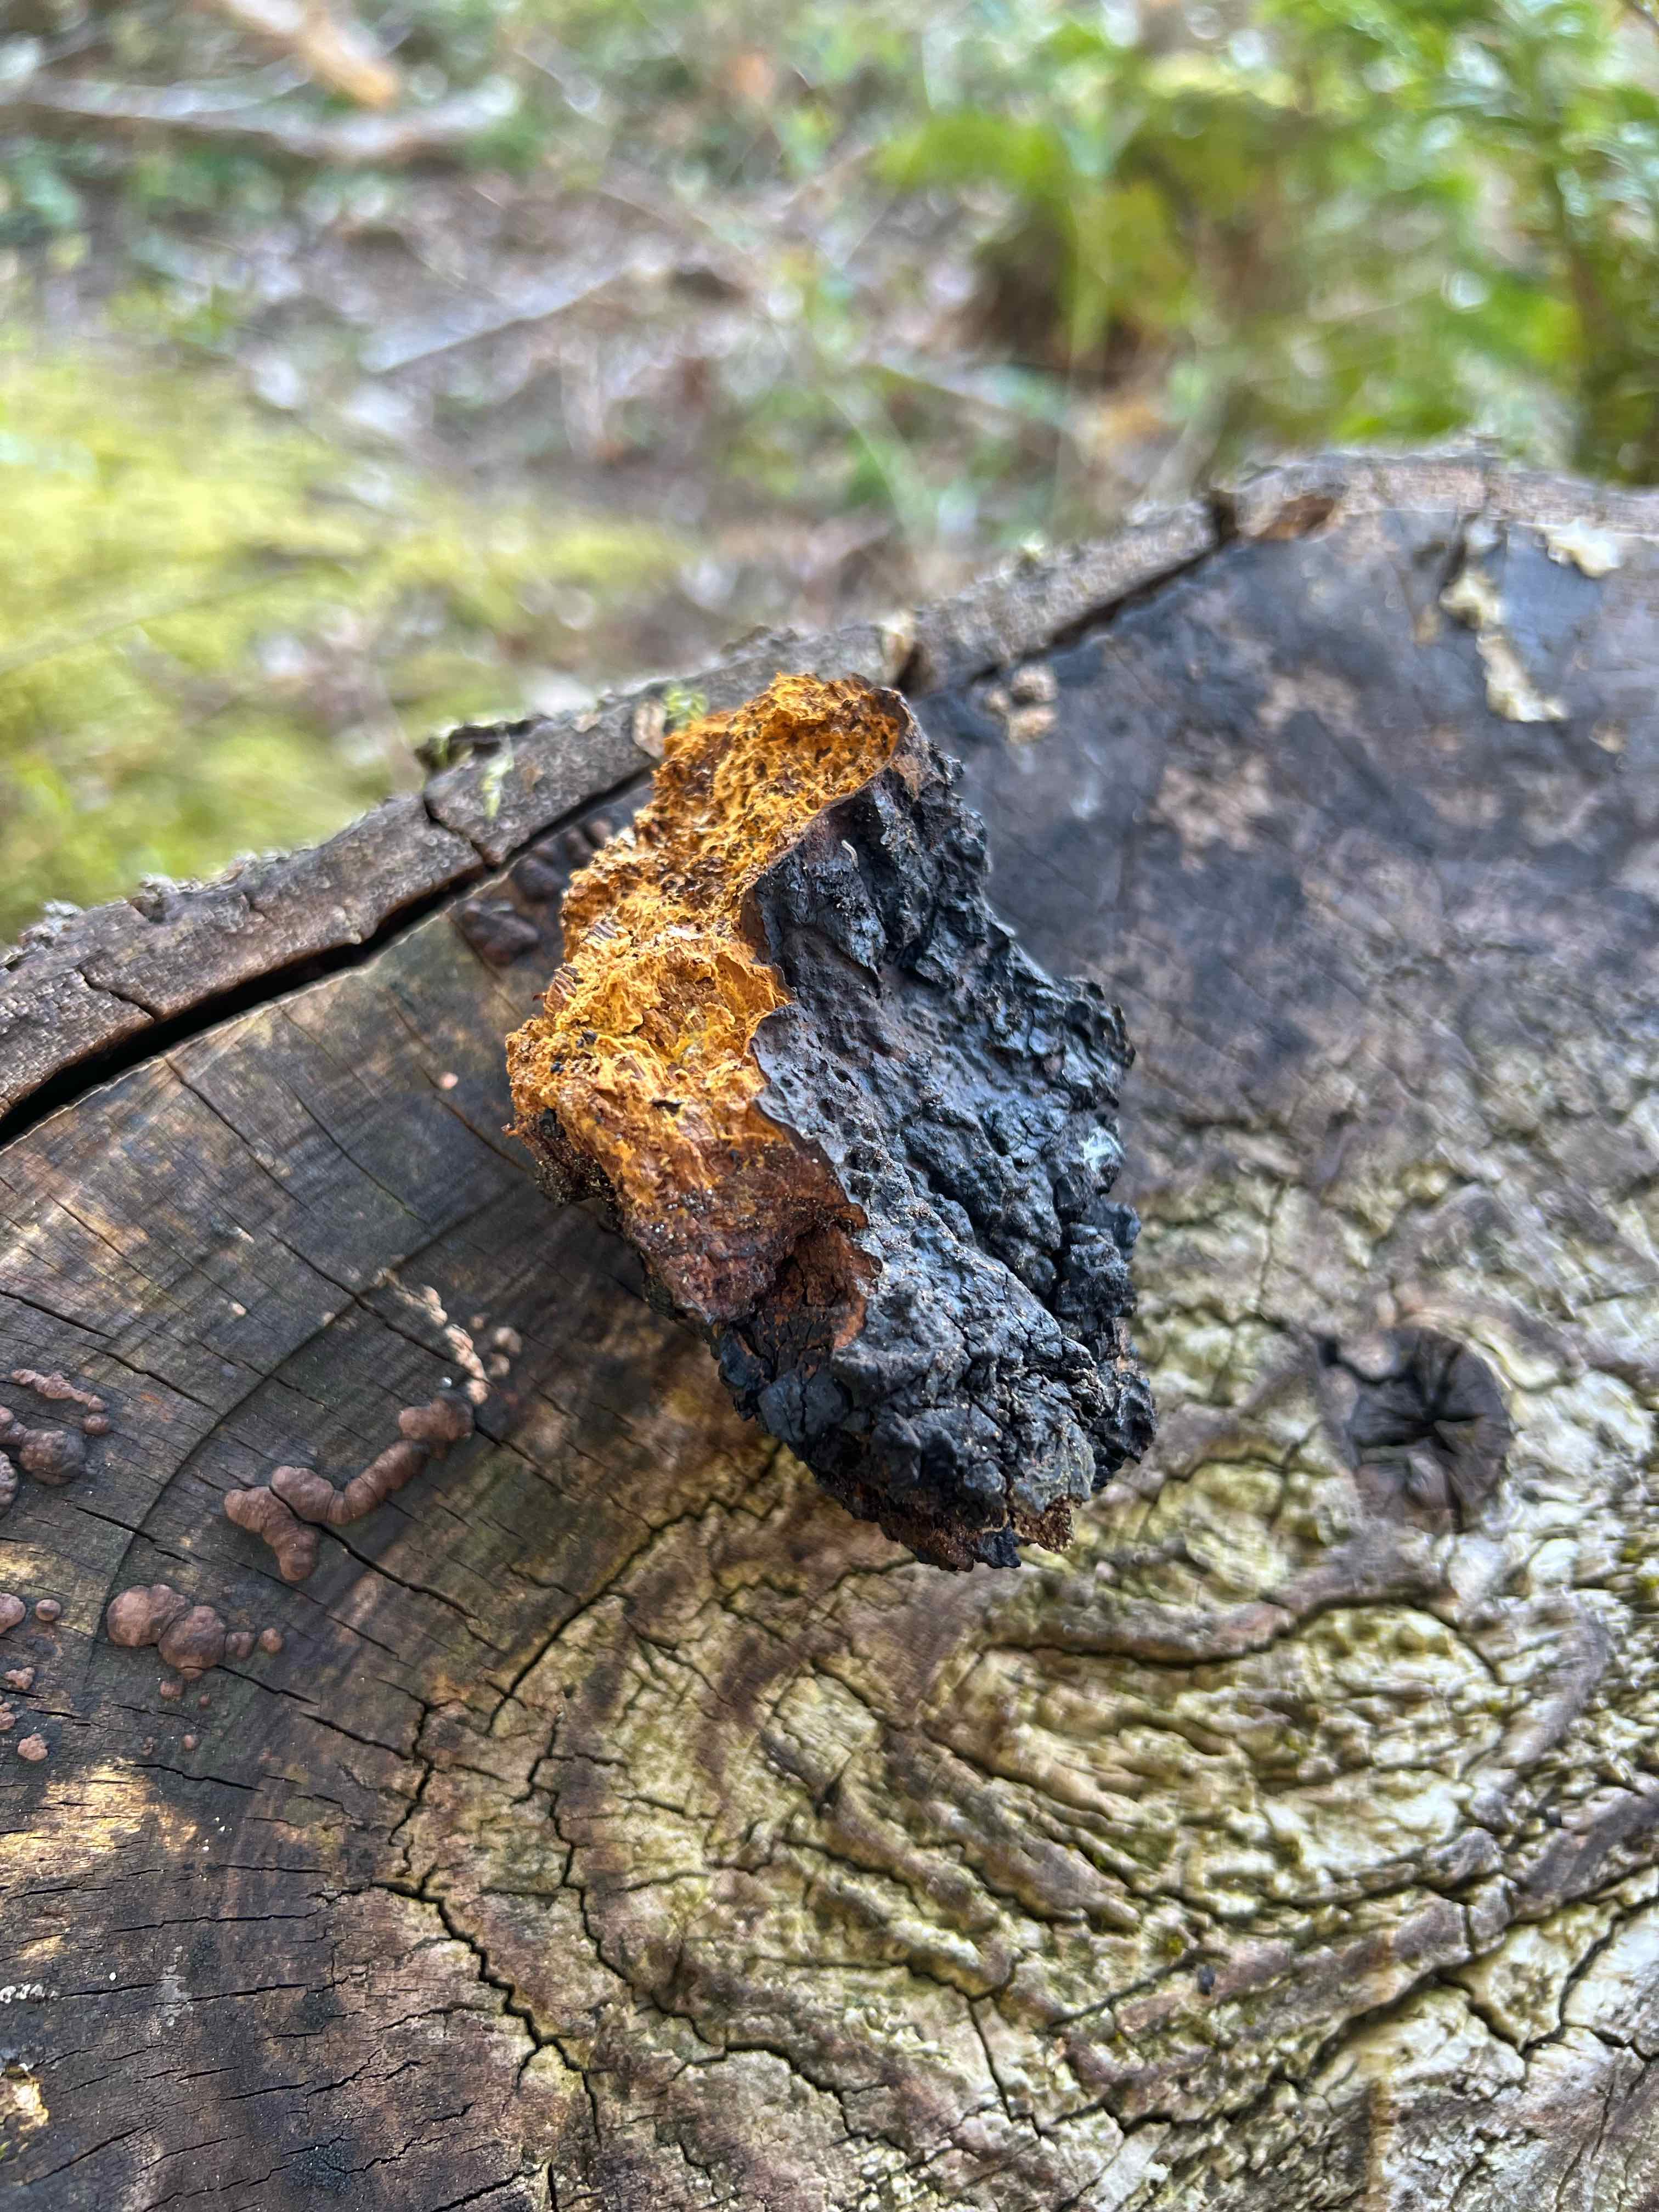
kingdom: Fungi
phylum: Basidiomycota
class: Agaricomycetes
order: Hymenochaetales
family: Hymenochaetaceae
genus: Inonotus
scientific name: Inonotus obliquus
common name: birke-spejlporesvamp
